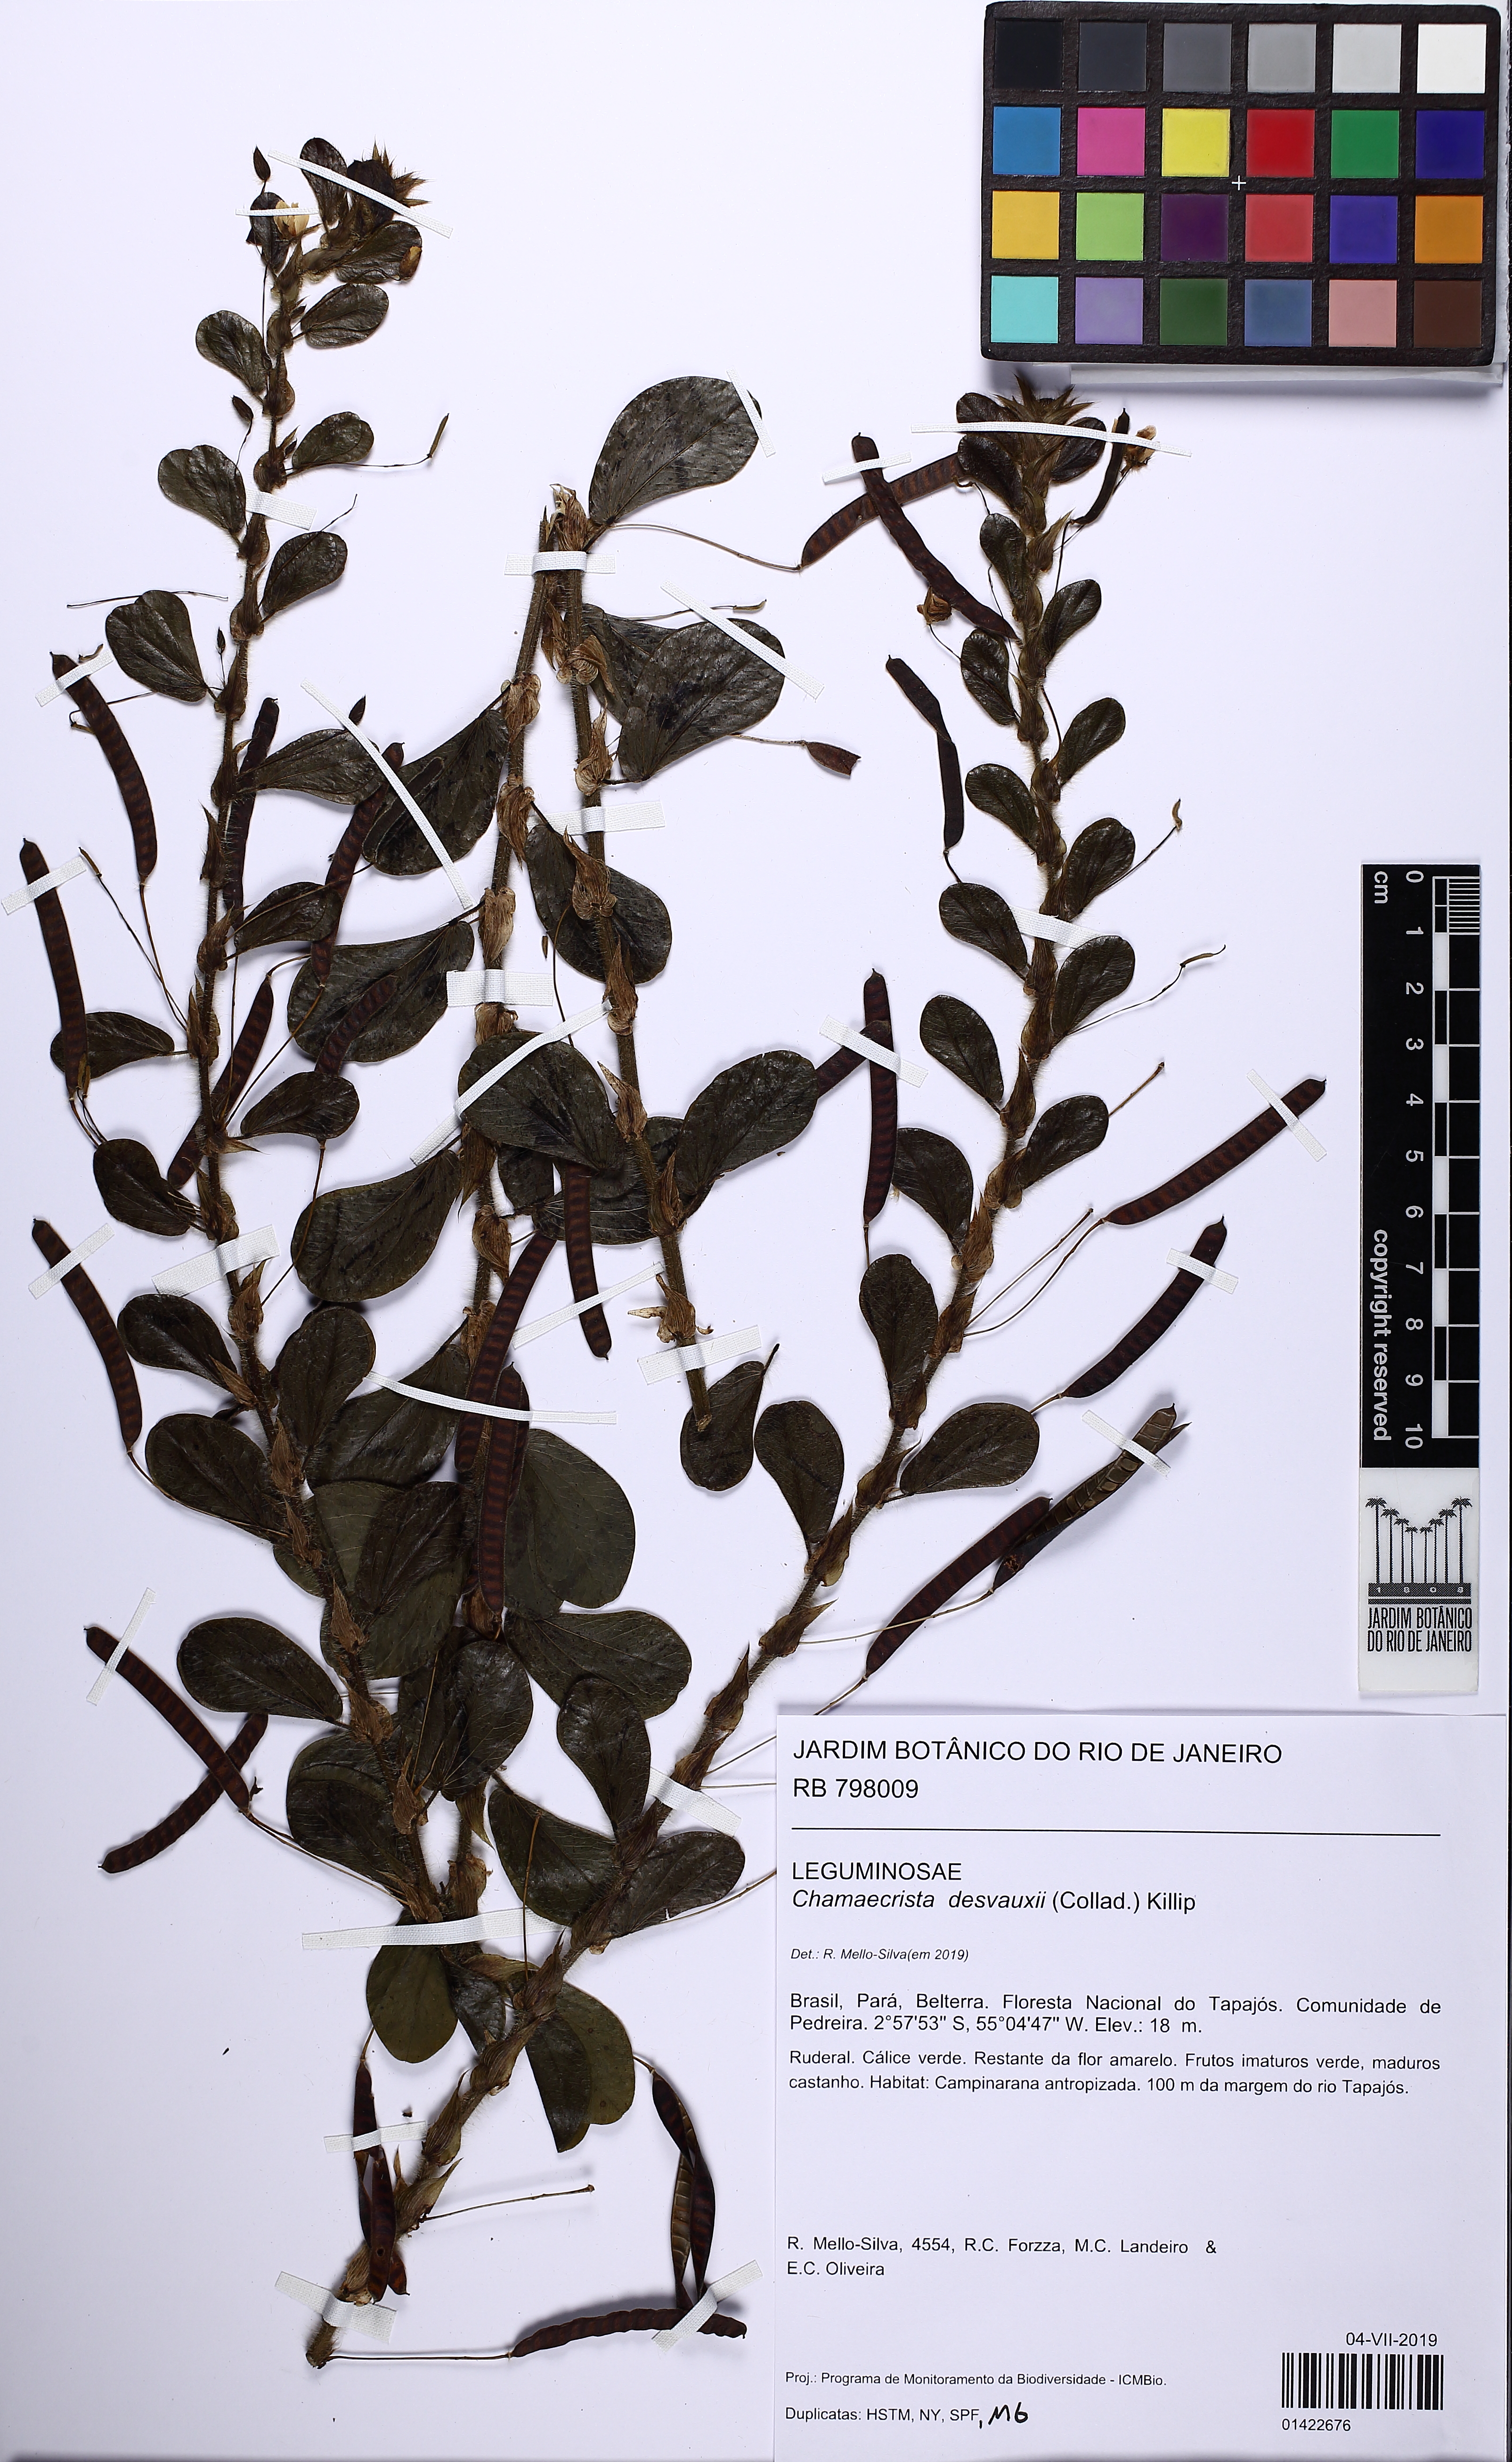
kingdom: Plantae
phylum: Tracheophyta
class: Magnoliopsida
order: Fabales
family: Fabaceae
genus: Chamaecrista
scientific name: Chamaecrista desvauxii
